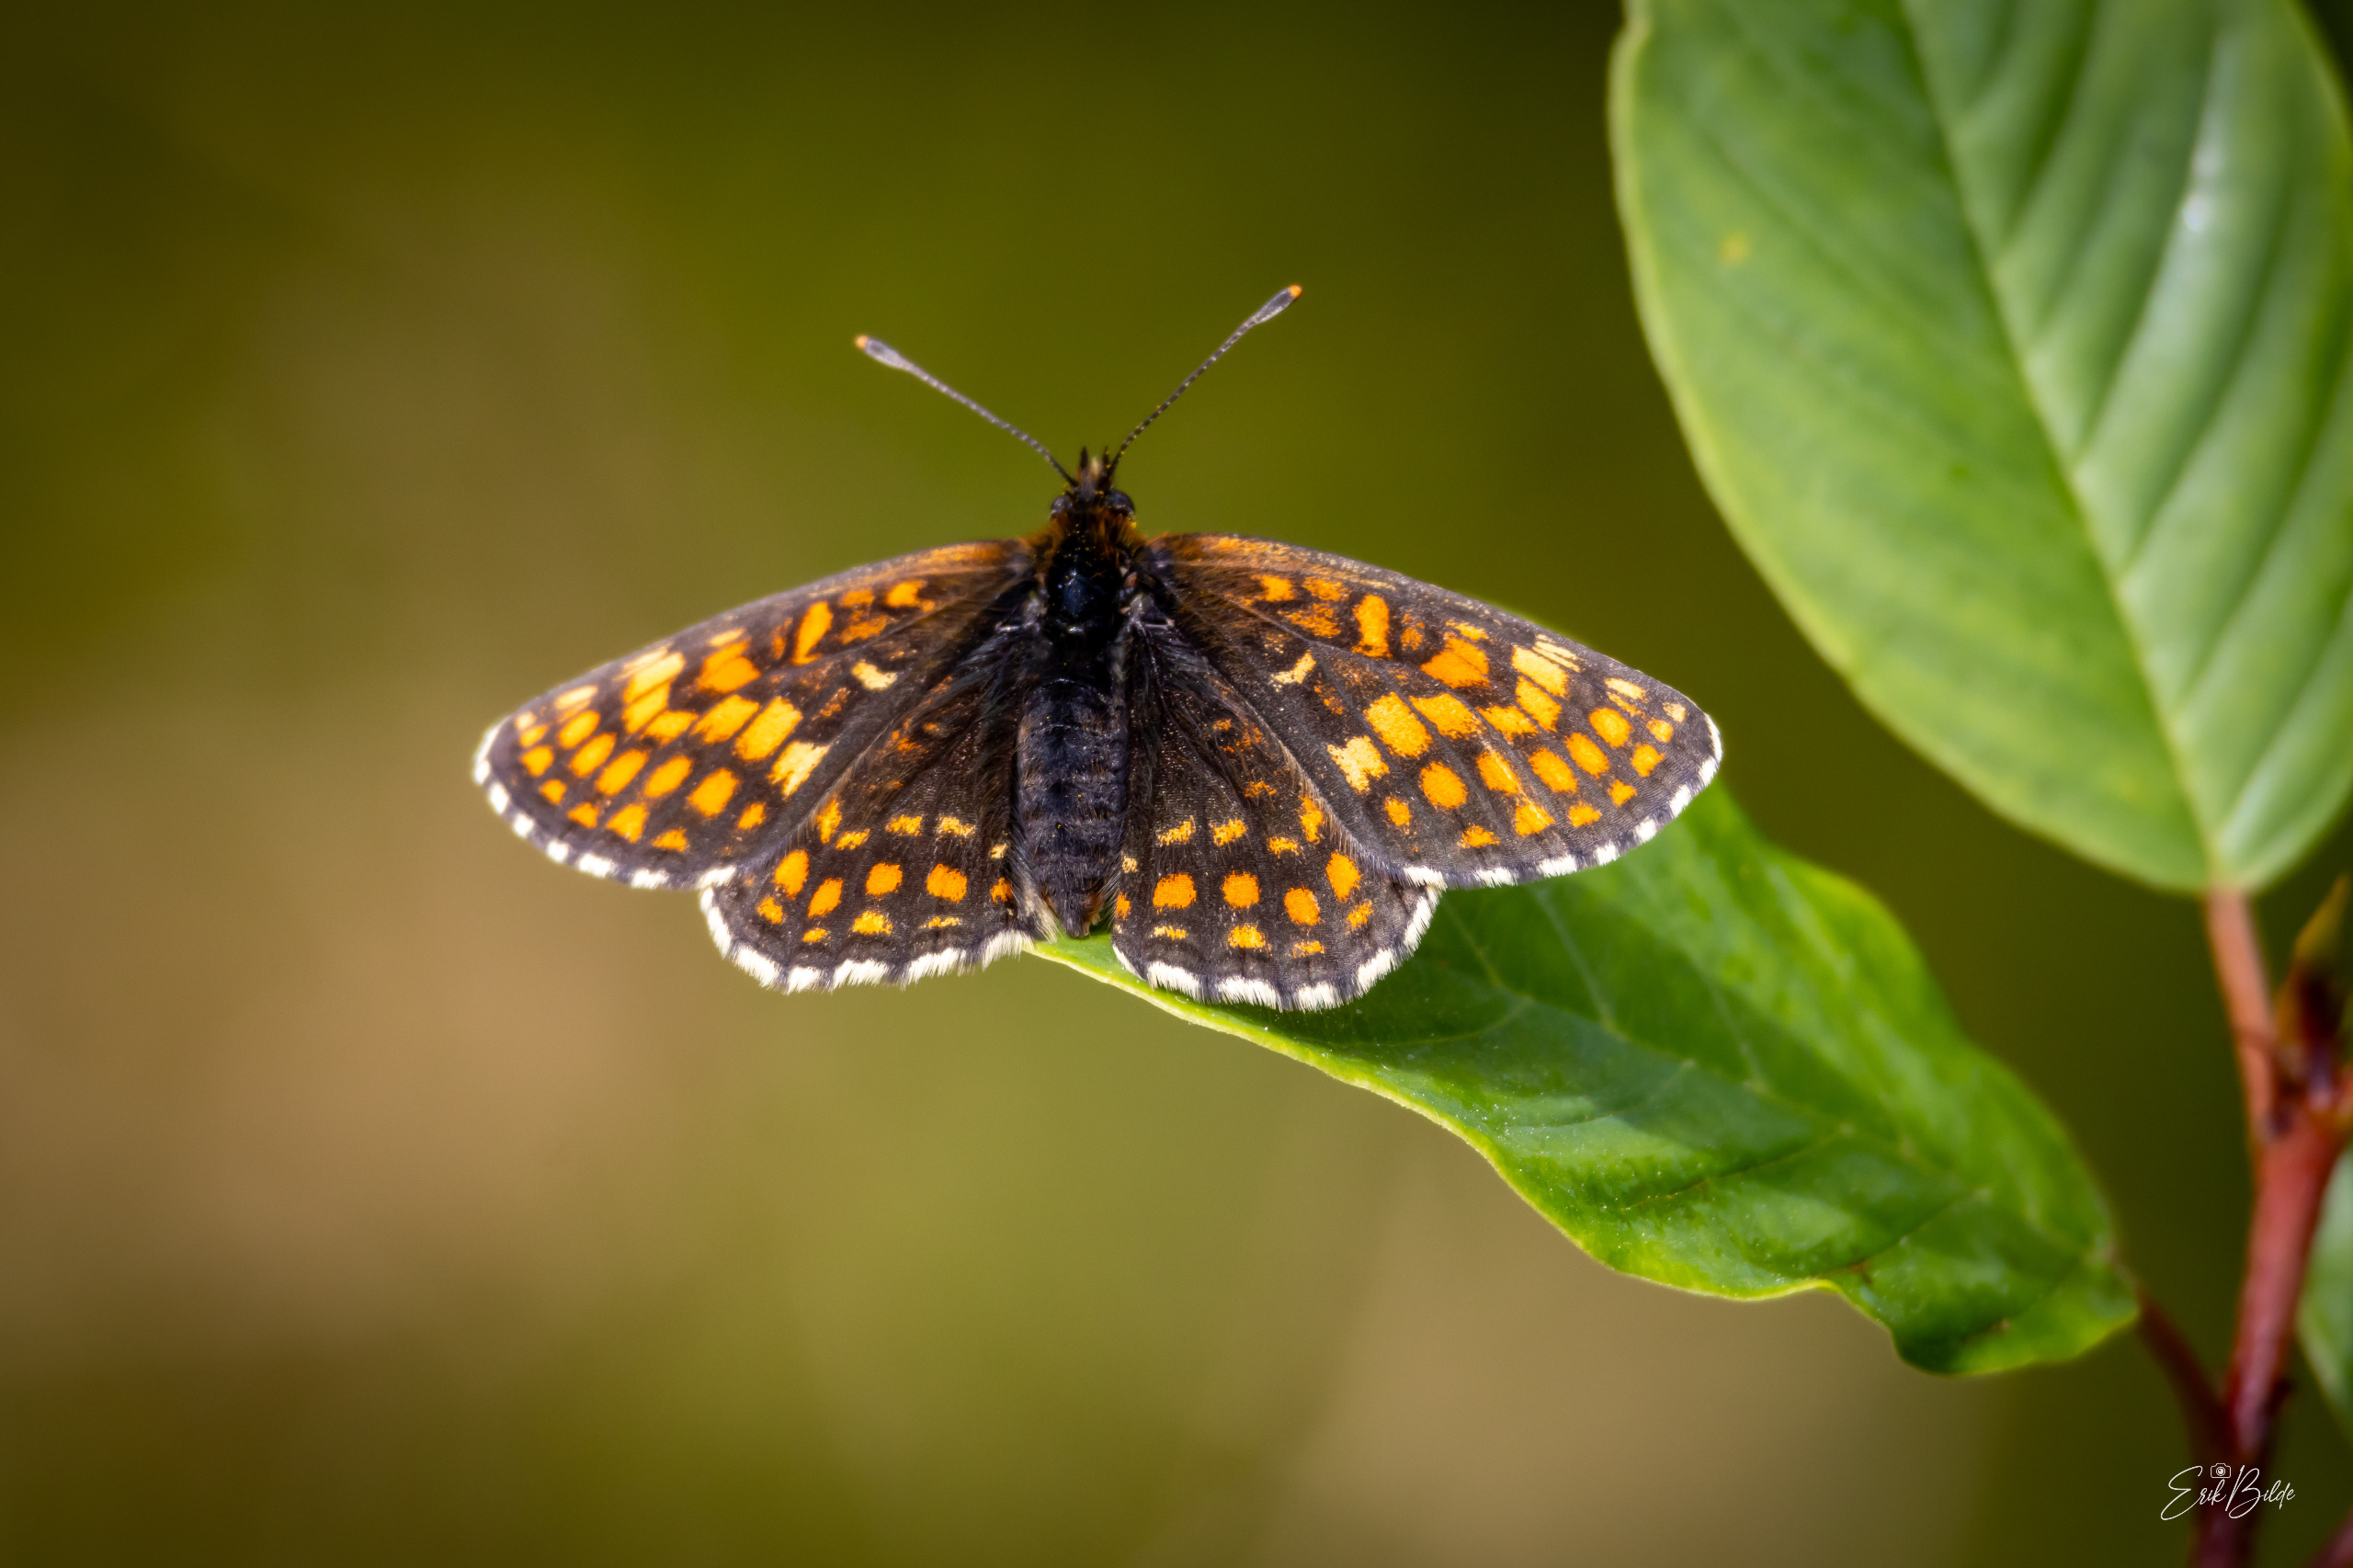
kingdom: Animalia
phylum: Arthropoda
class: Insecta
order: Lepidoptera
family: Nymphalidae
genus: Mellicta
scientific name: Mellicta athalia
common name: Brun pletvinge
